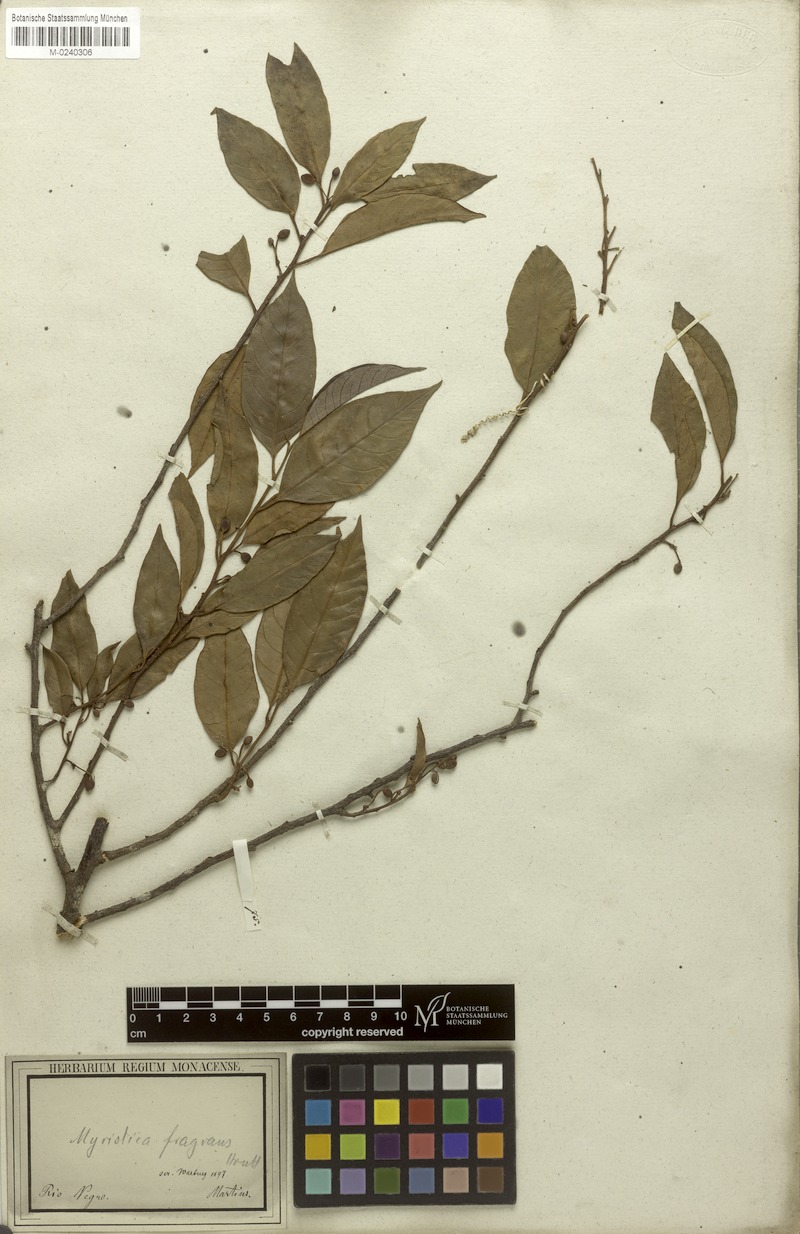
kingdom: Plantae
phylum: Tracheophyta
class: Magnoliopsida
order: Magnoliales
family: Myristicaceae
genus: Myristica
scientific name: Myristica fragrans
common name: Nutmeg
